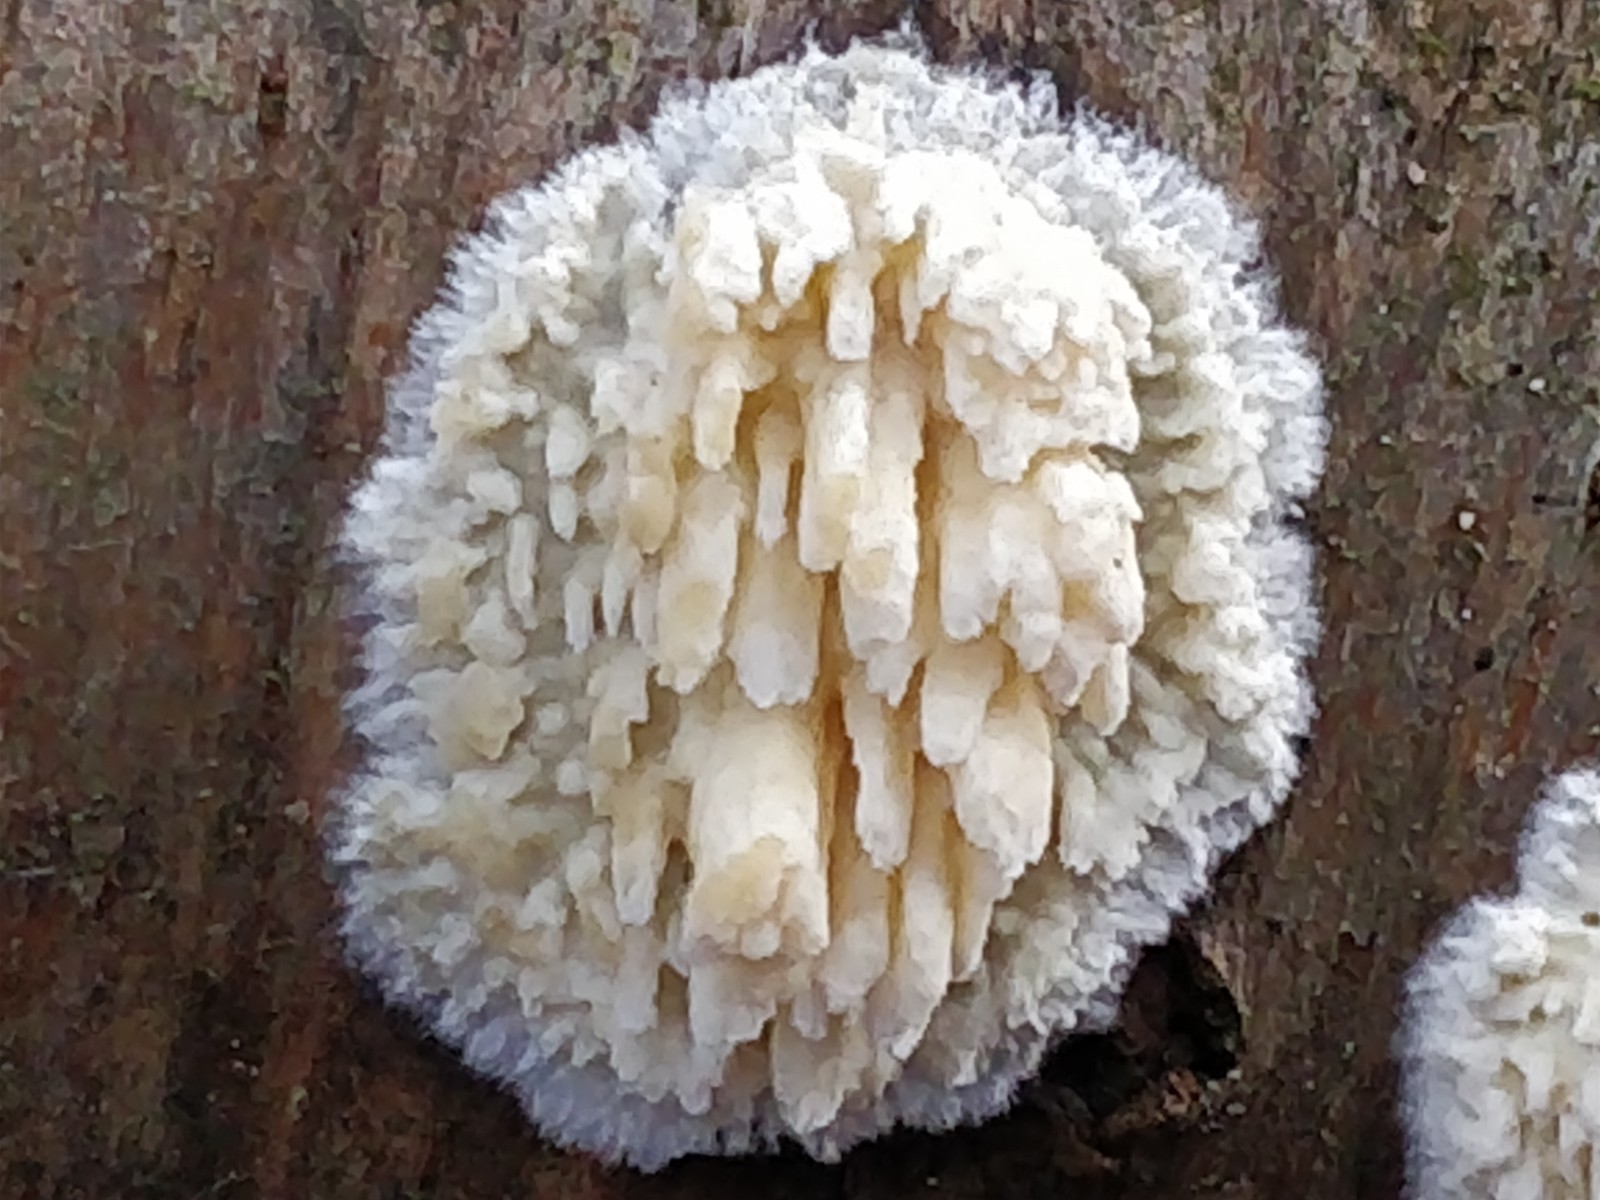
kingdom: Fungi
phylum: Basidiomycota
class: Agaricomycetes
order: Hymenochaetales
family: Schizoporaceae
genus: Xylodon
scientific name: Xylodon radula
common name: grovtandet kalkskind
